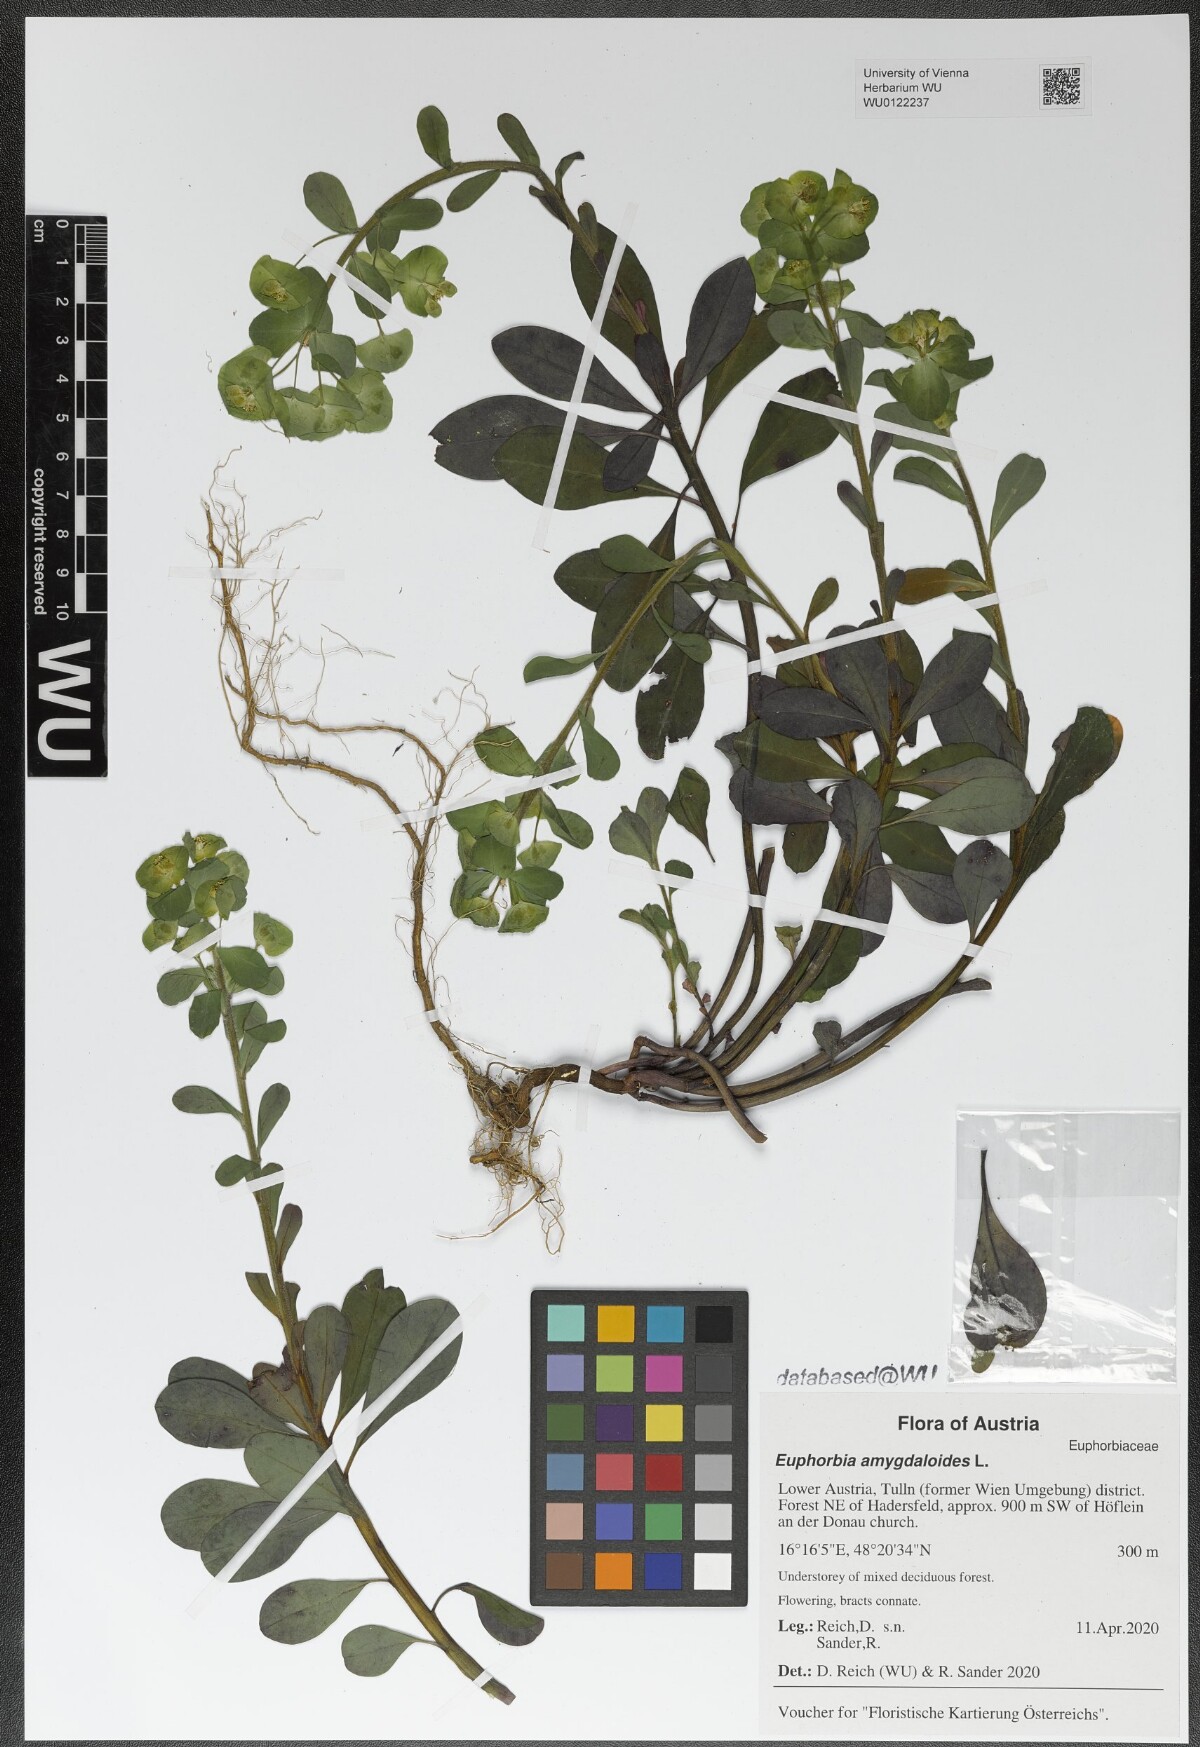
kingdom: Plantae
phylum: Tracheophyta
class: Magnoliopsida
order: Malpighiales
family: Euphorbiaceae
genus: Euphorbia
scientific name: Euphorbia amygdaloides
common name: Wood spurge
